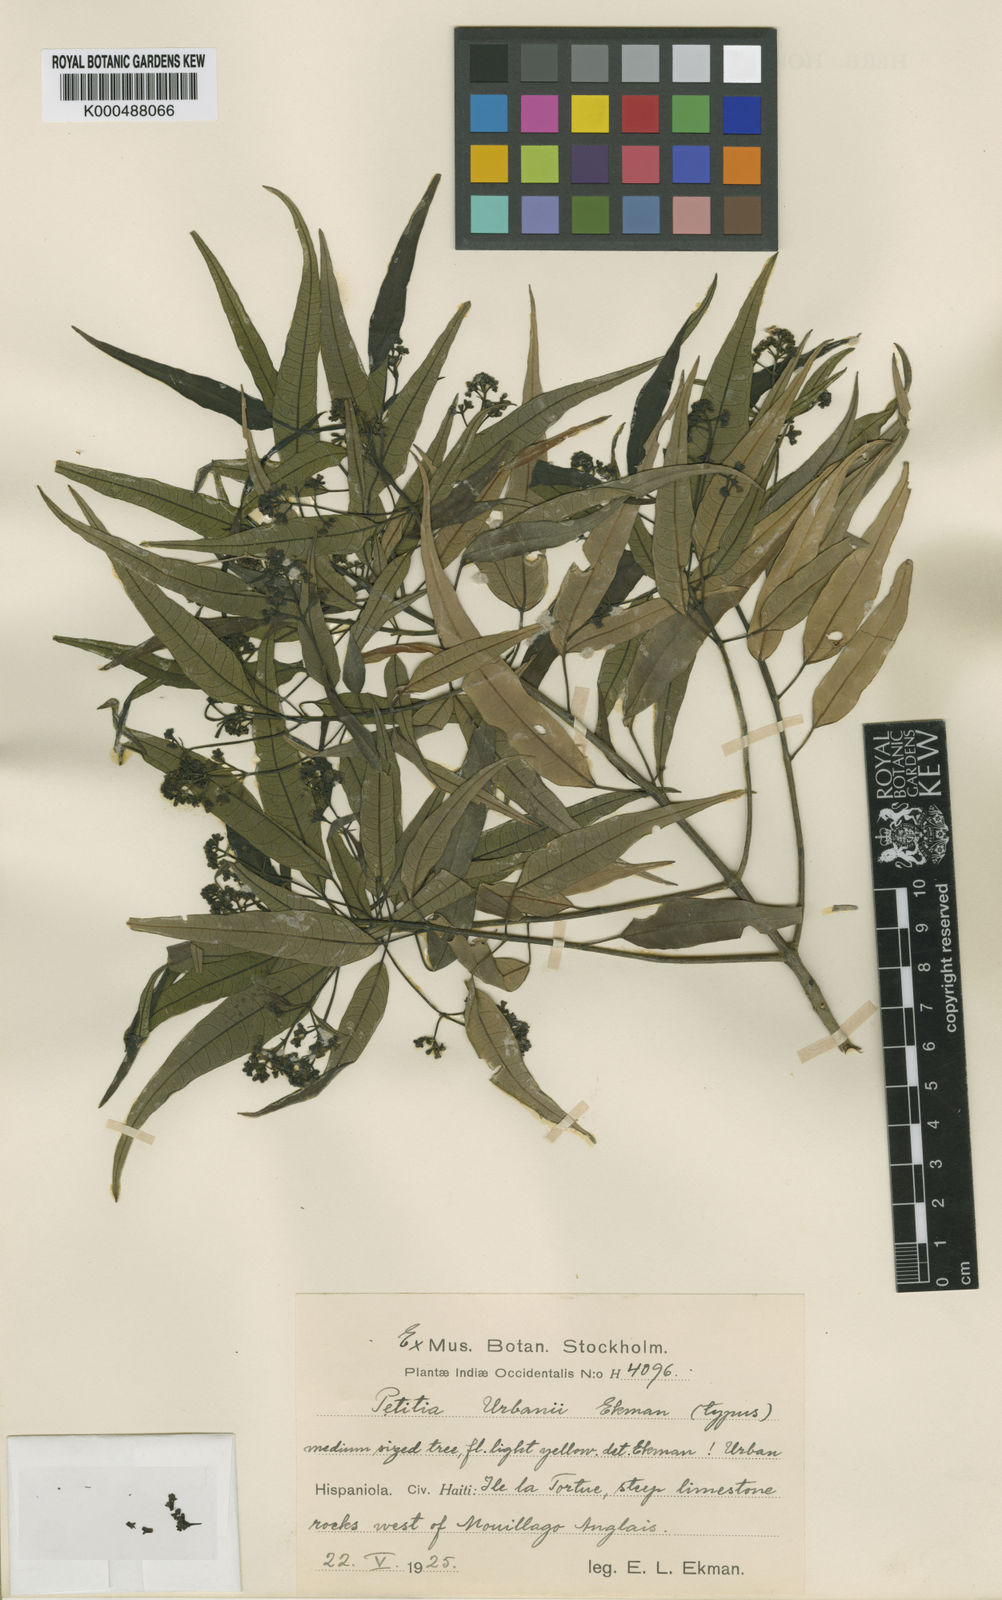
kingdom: Plantae
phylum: Tracheophyta
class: Magnoliopsida
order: Lamiales
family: Lamiaceae
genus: Vitex
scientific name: Vitex urbanii
